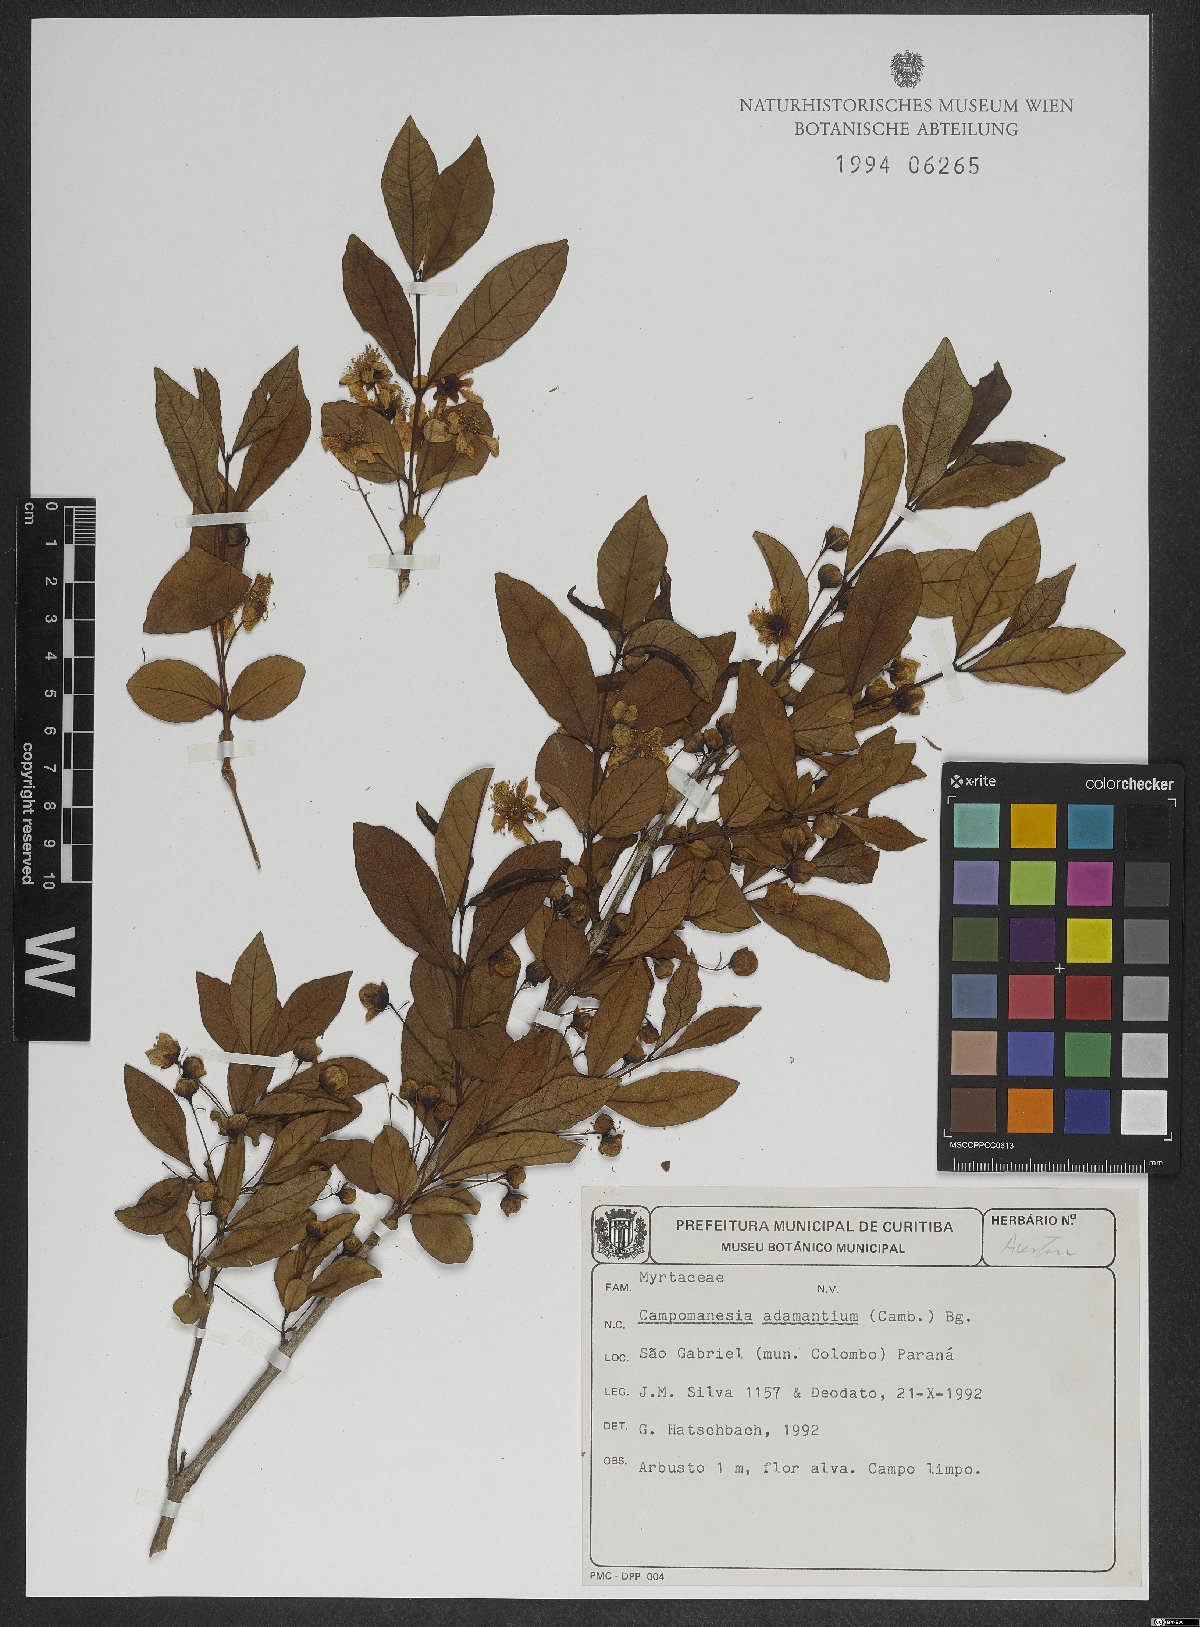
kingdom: Plantae
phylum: Tracheophyta
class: Magnoliopsida
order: Myrtales
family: Myrtaceae
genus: Campomanesia
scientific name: Campomanesia adamantium
